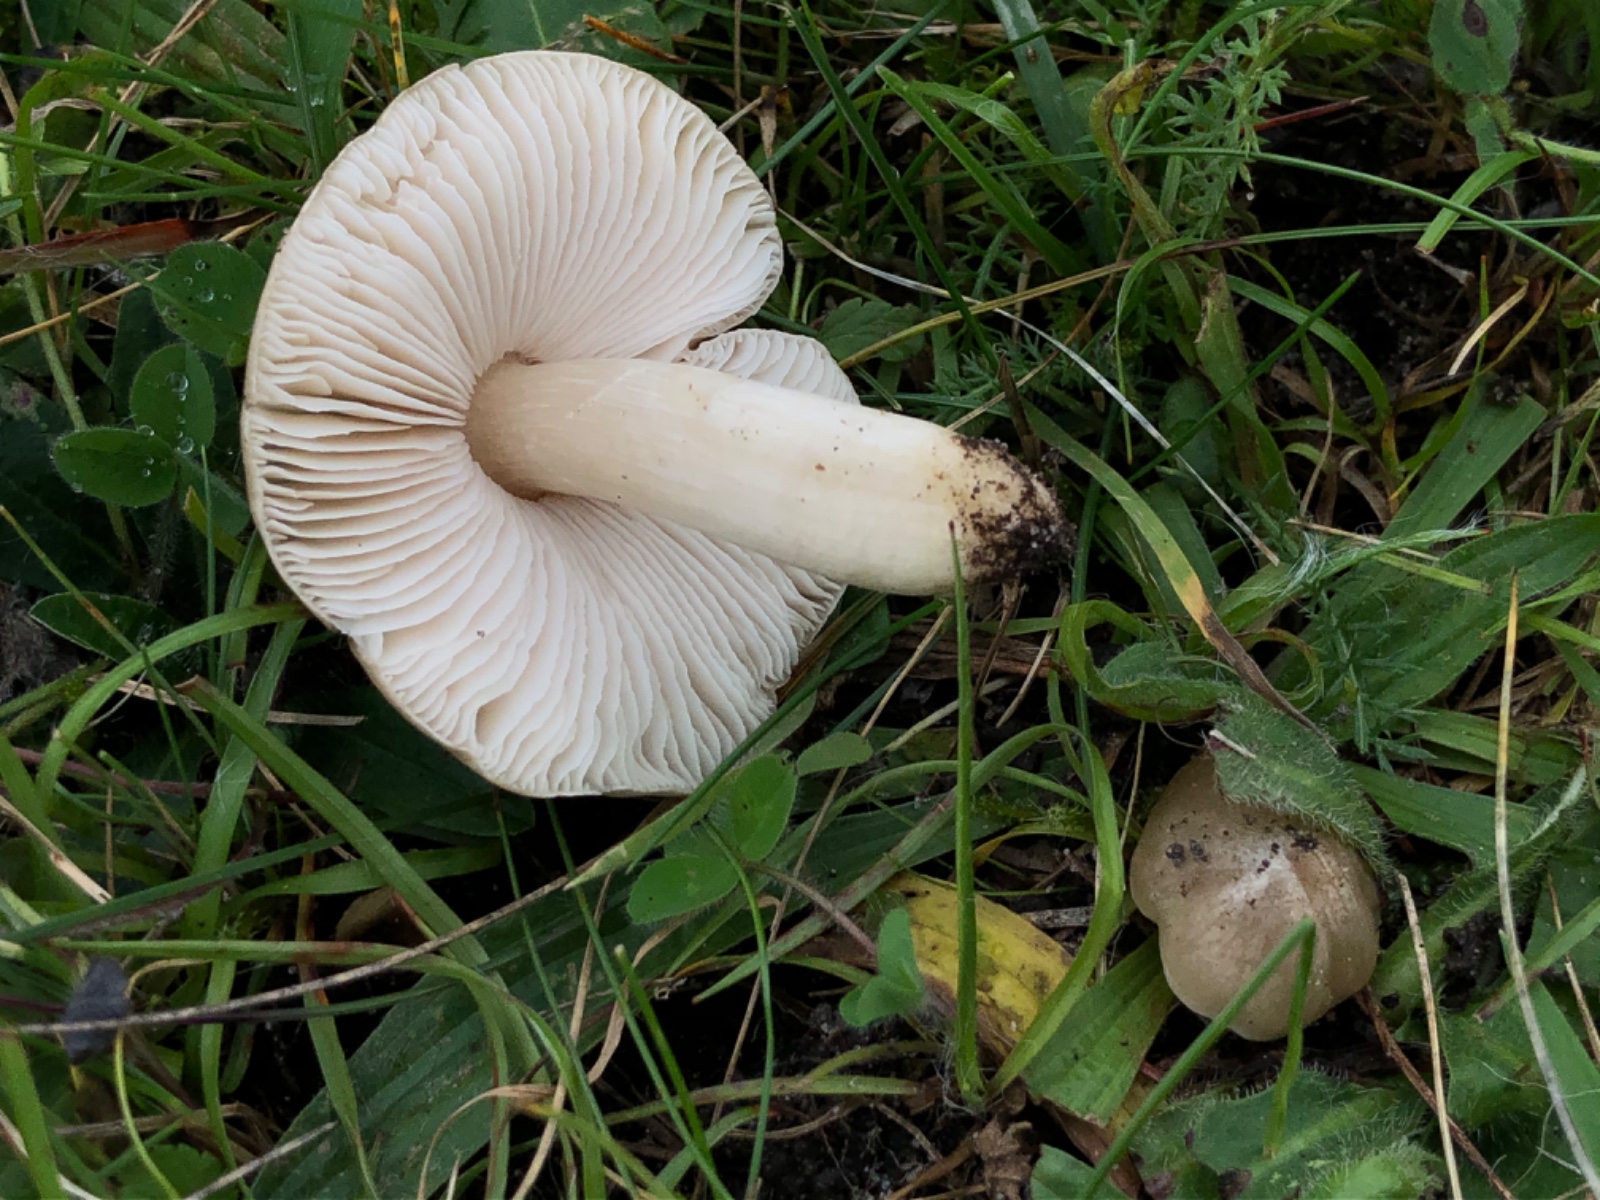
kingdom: Fungi
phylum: Basidiomycota
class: Agaricomycetes
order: Agaricales
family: Entolomataceae
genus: Entoloma
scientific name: Entoloma prunuloides
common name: mel-rødblad
